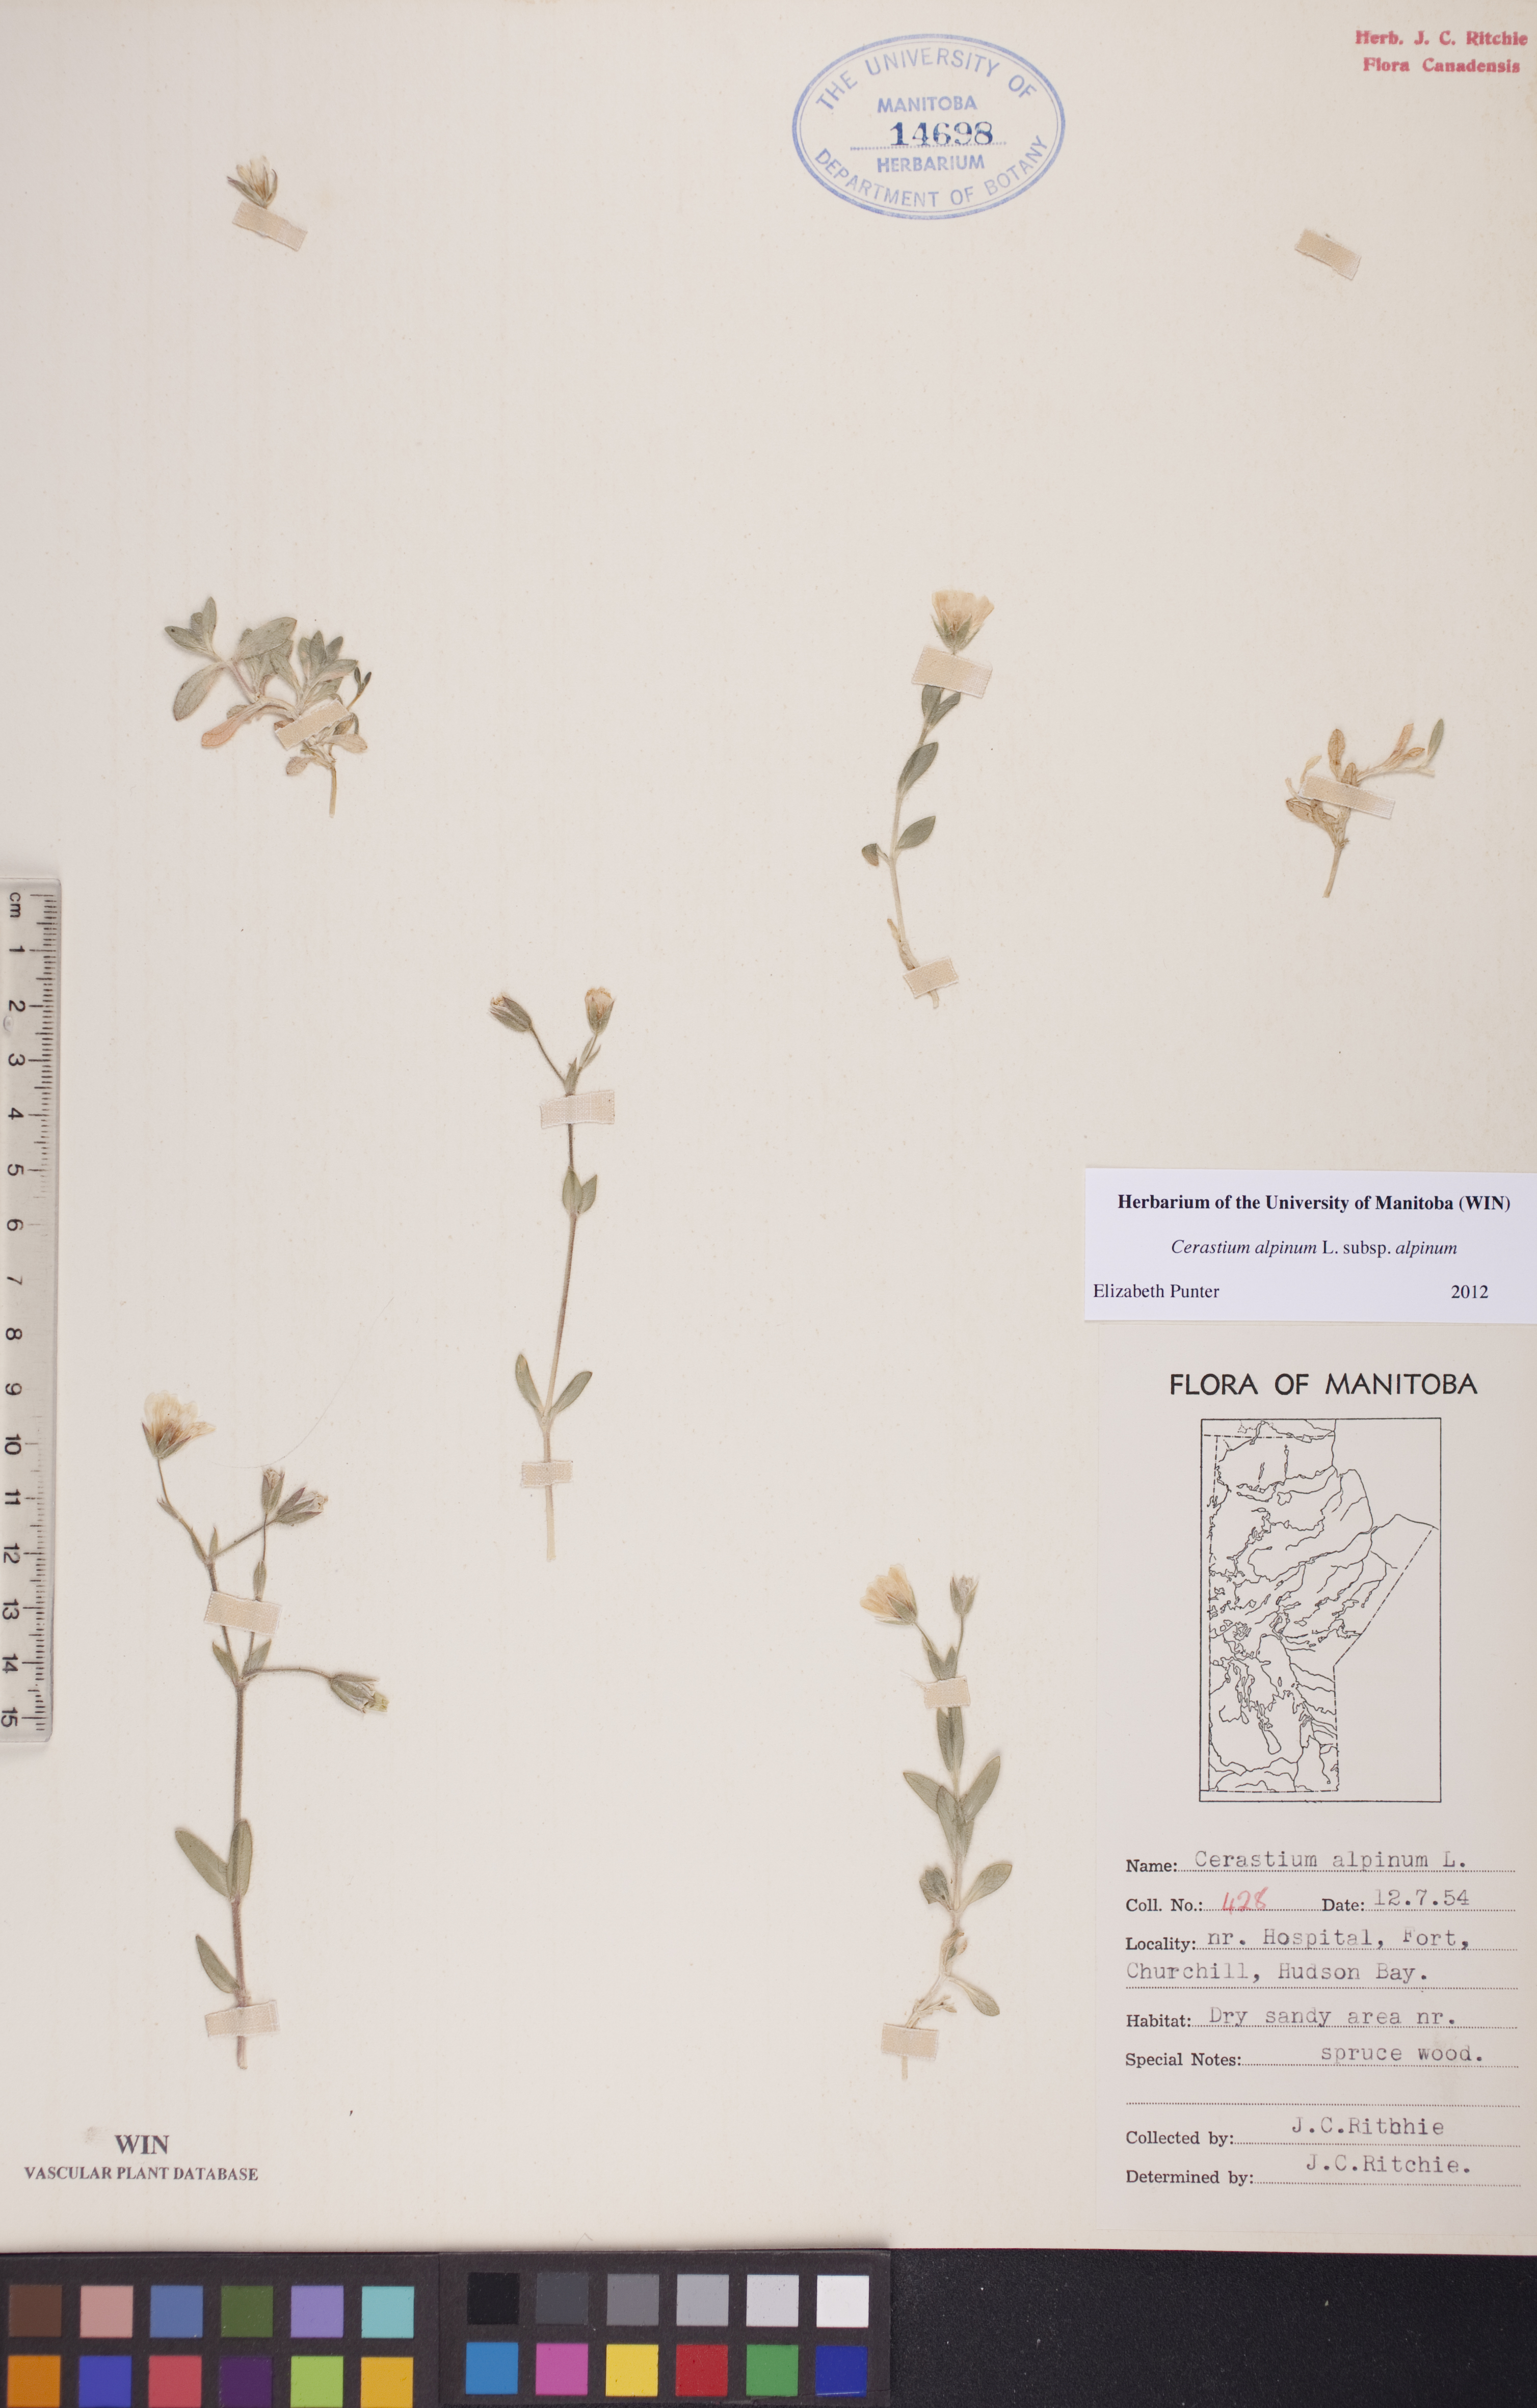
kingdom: Plantae
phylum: Tracheophyta
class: Magnoliopsida
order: Caryophyllales
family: Caryophyllaceae
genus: Cerastium
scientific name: Cerastium alpinum
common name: Alpine mouse-ear
